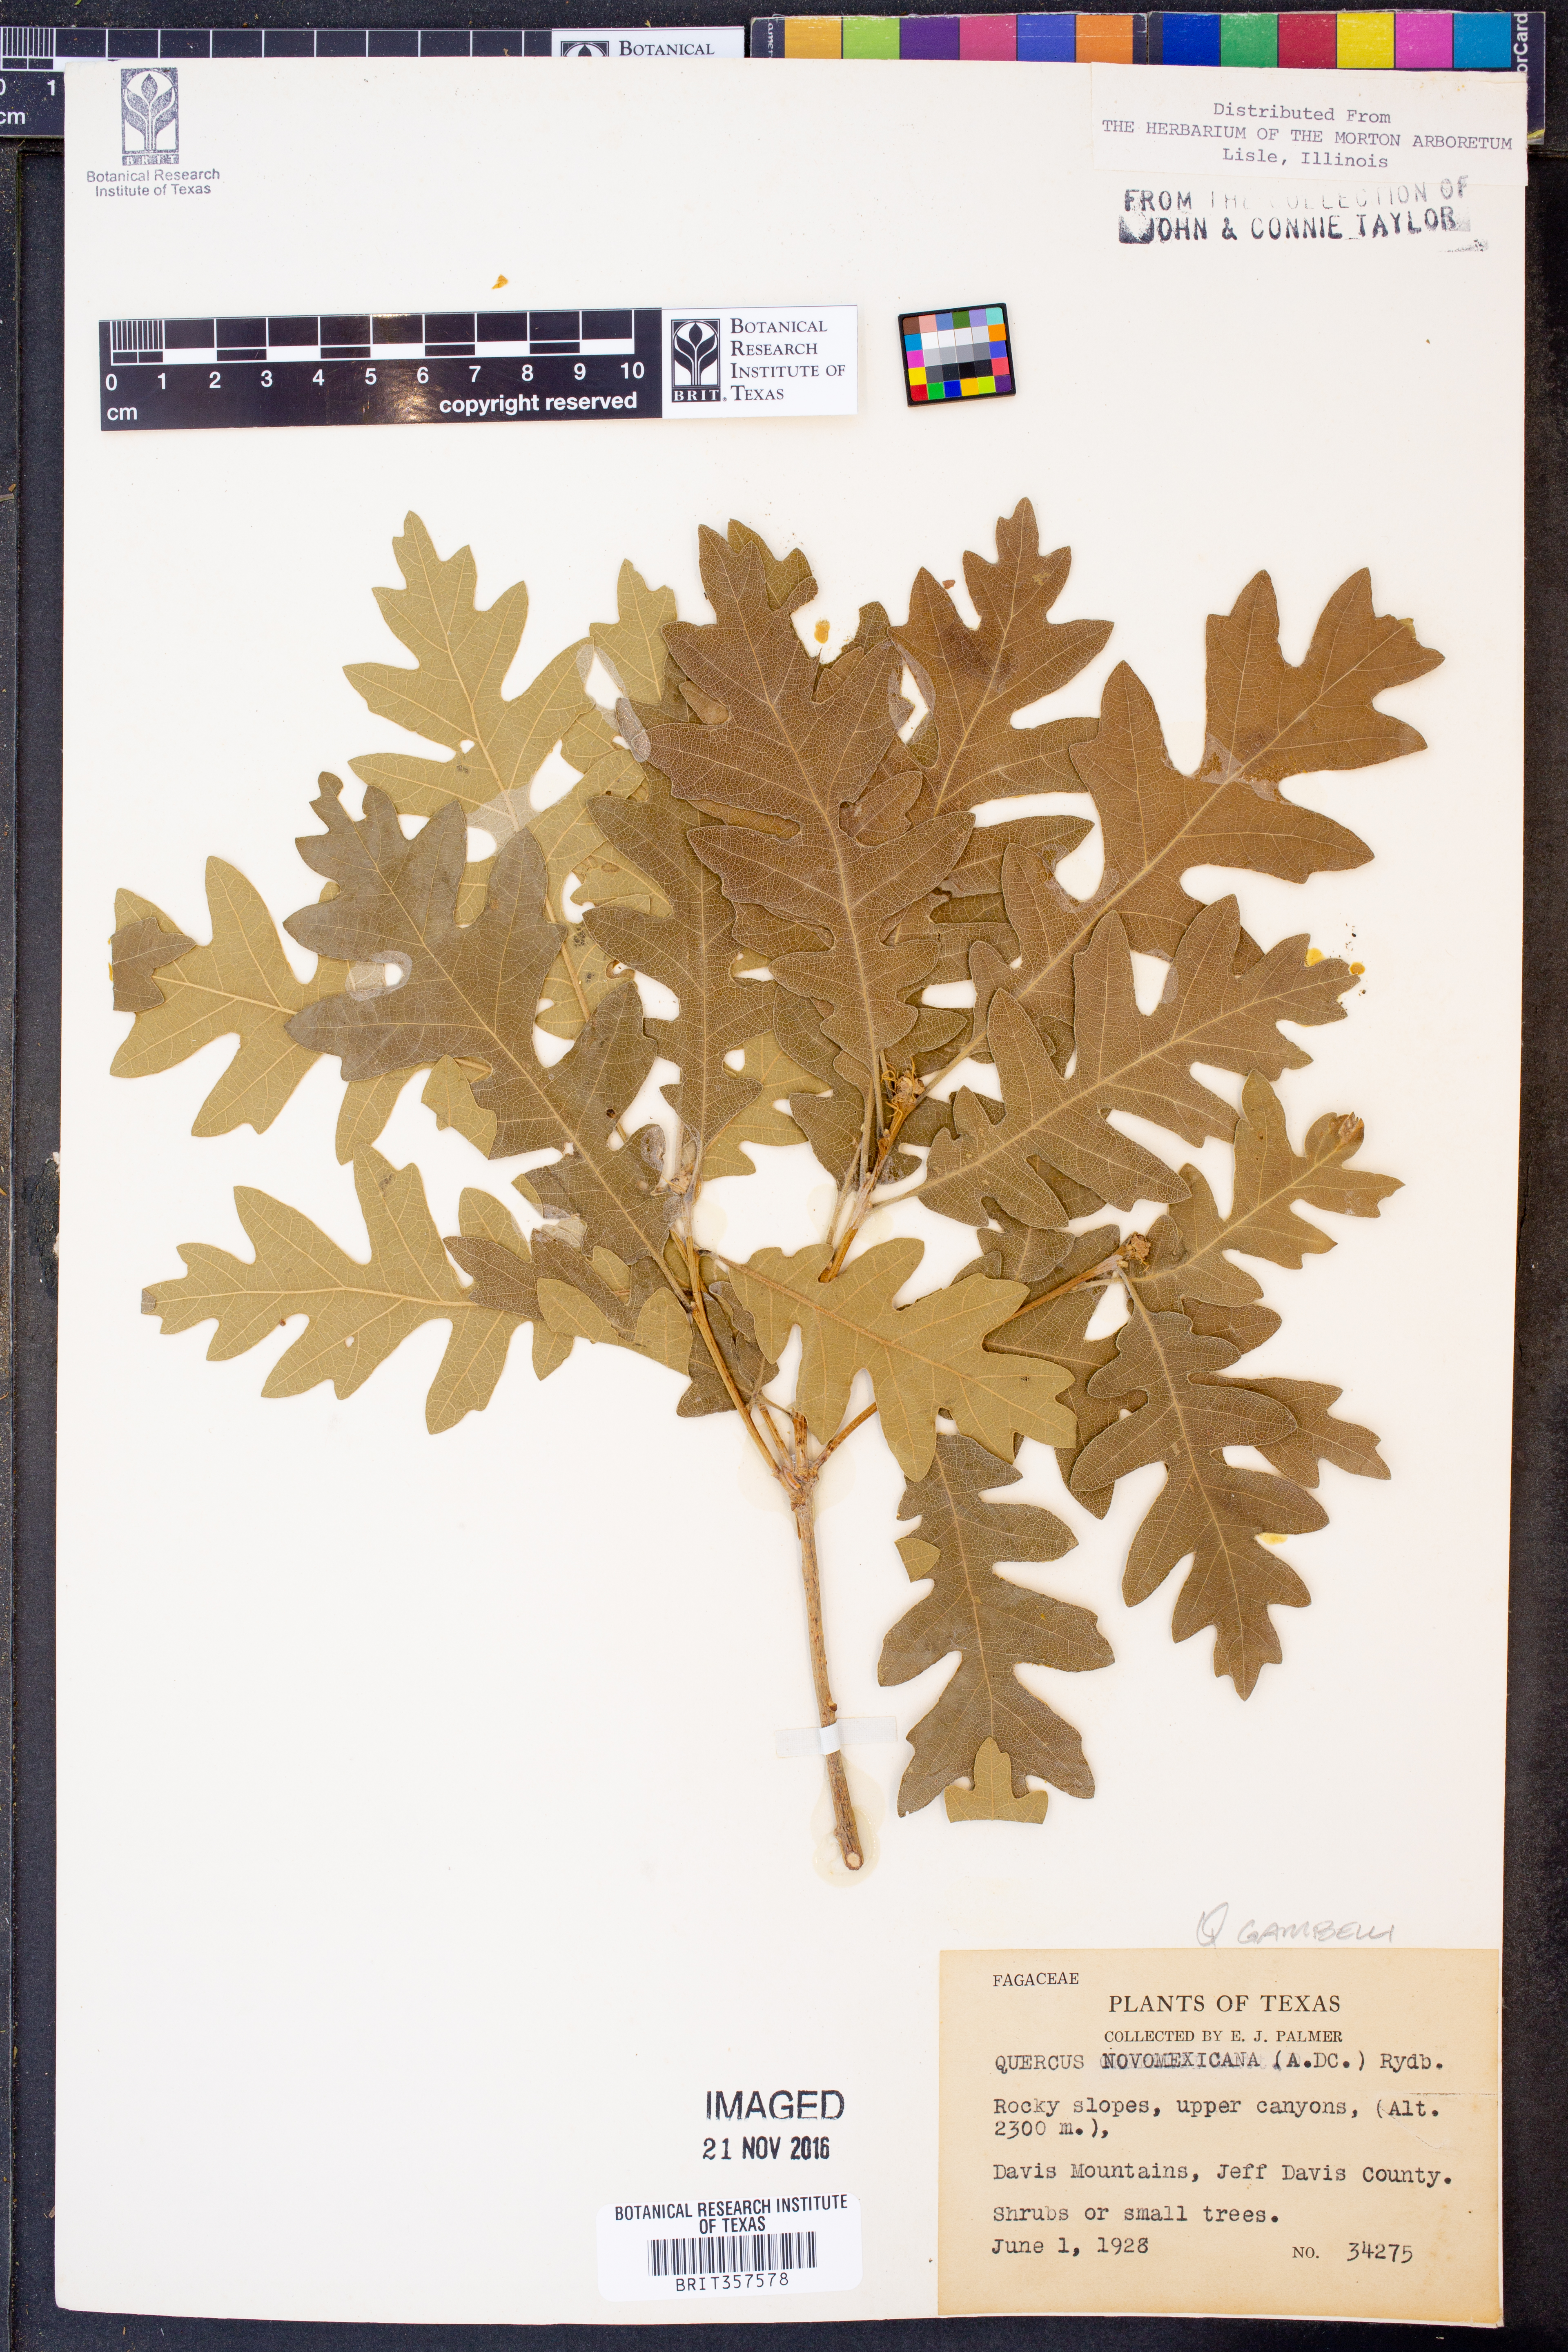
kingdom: Plantae
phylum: Tracheophyta
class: Magnoliopsida
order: Fagales
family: Fagaceae
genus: Quercus
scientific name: Quercus gambelii
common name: Gambel oak
